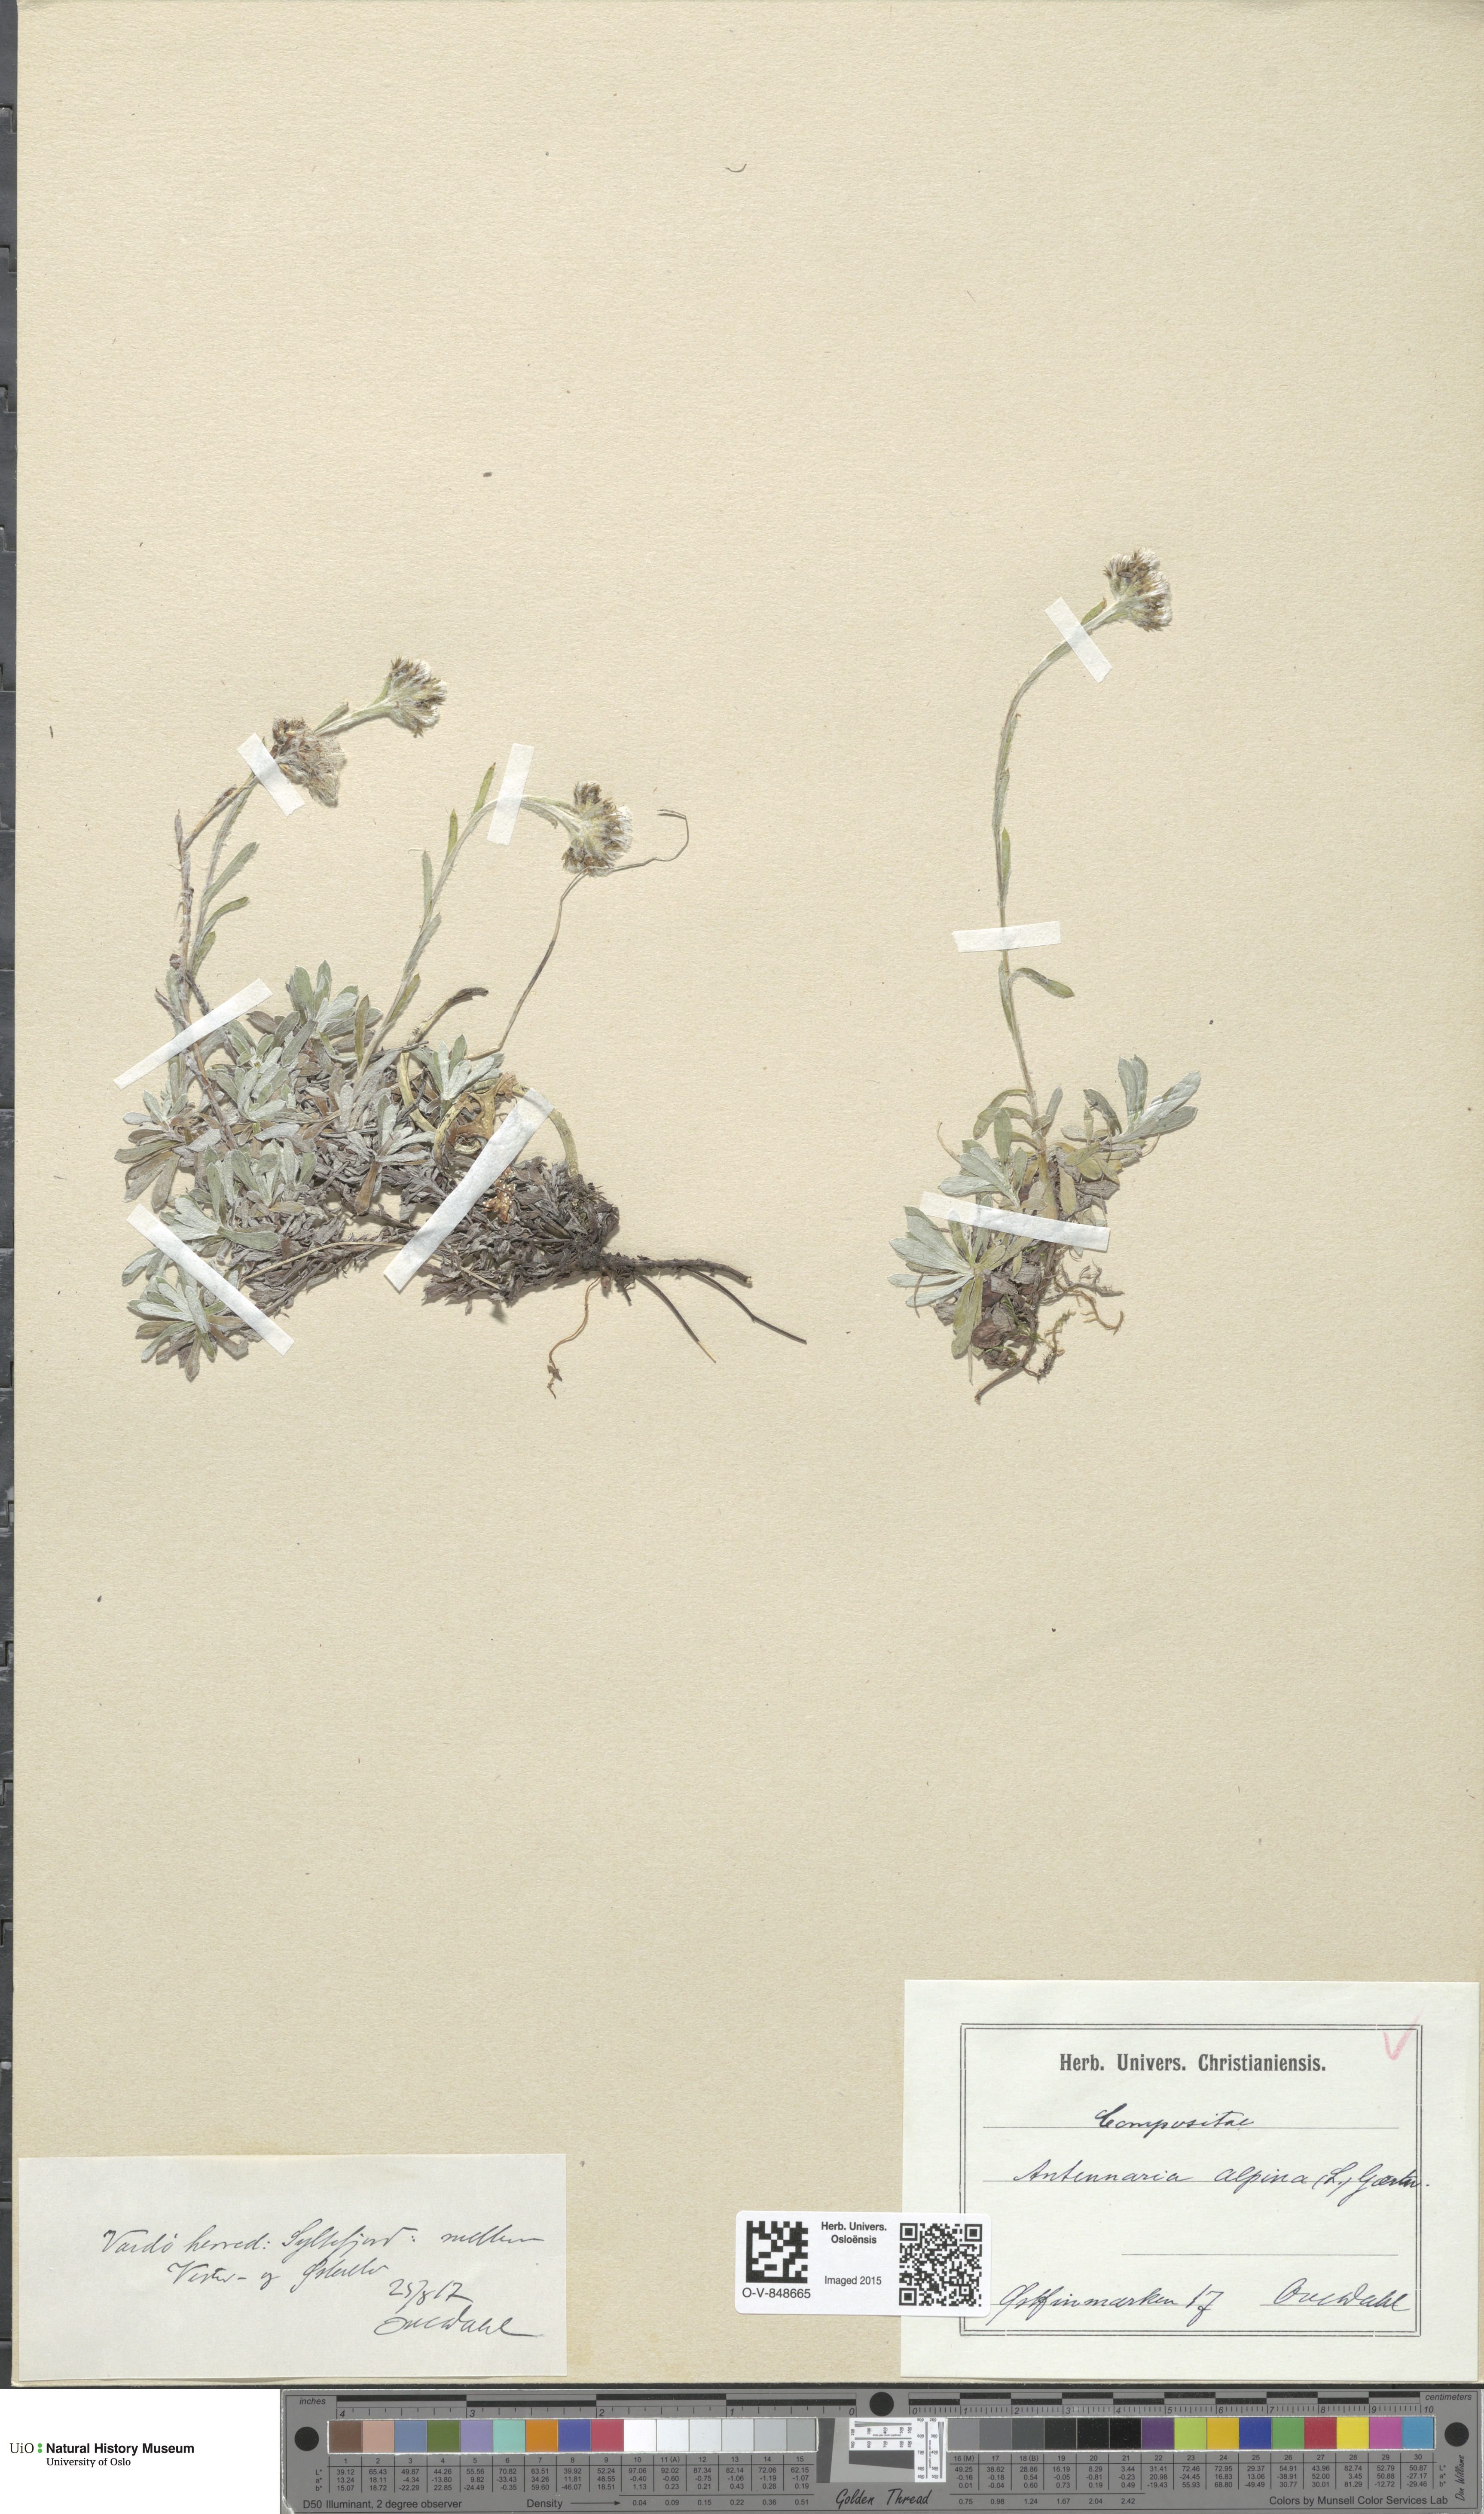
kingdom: Plantae
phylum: Tracheophyta
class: Magnoliopsida
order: Asterales
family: Asteraceae
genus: Antennaria
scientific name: Antennaria alpina
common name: Alpine pussytoes
